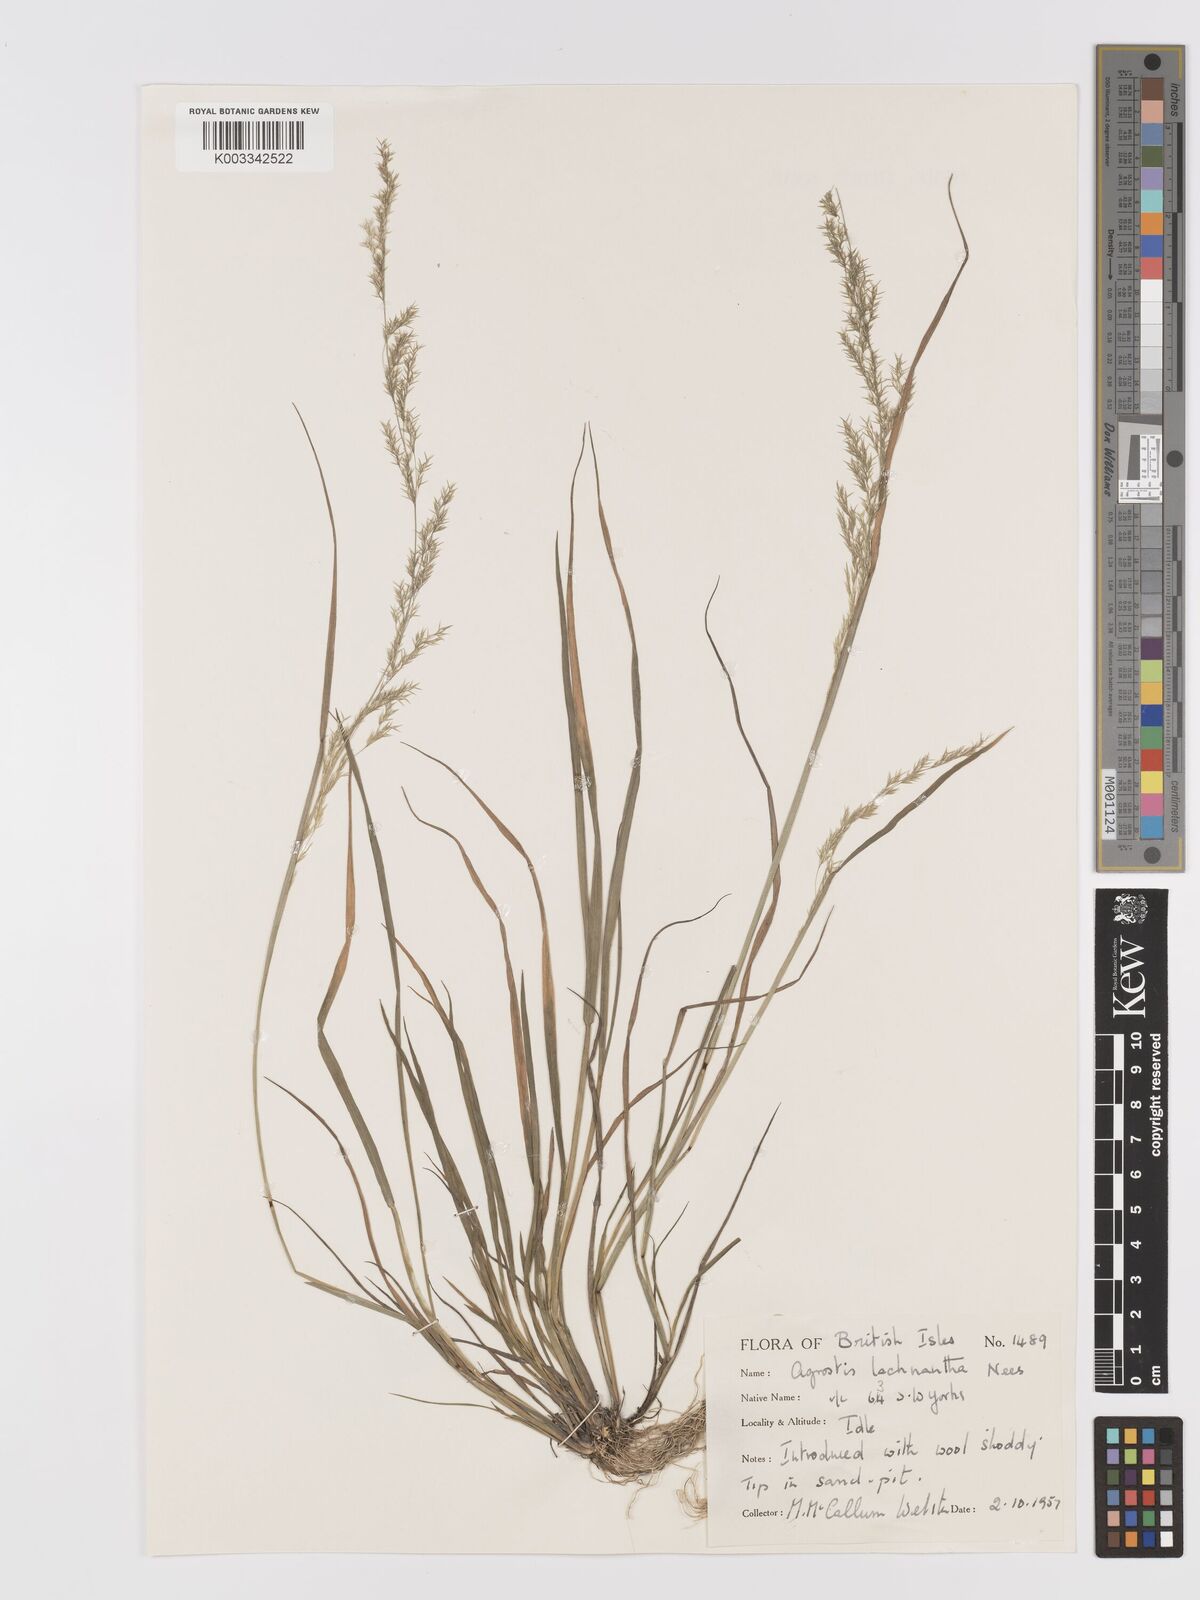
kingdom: Plantae
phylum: Tracheophyta
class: Liliopsida
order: Poales
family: Poaceae
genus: Lachnagrostis
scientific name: Lachnagrostis lachnantha
